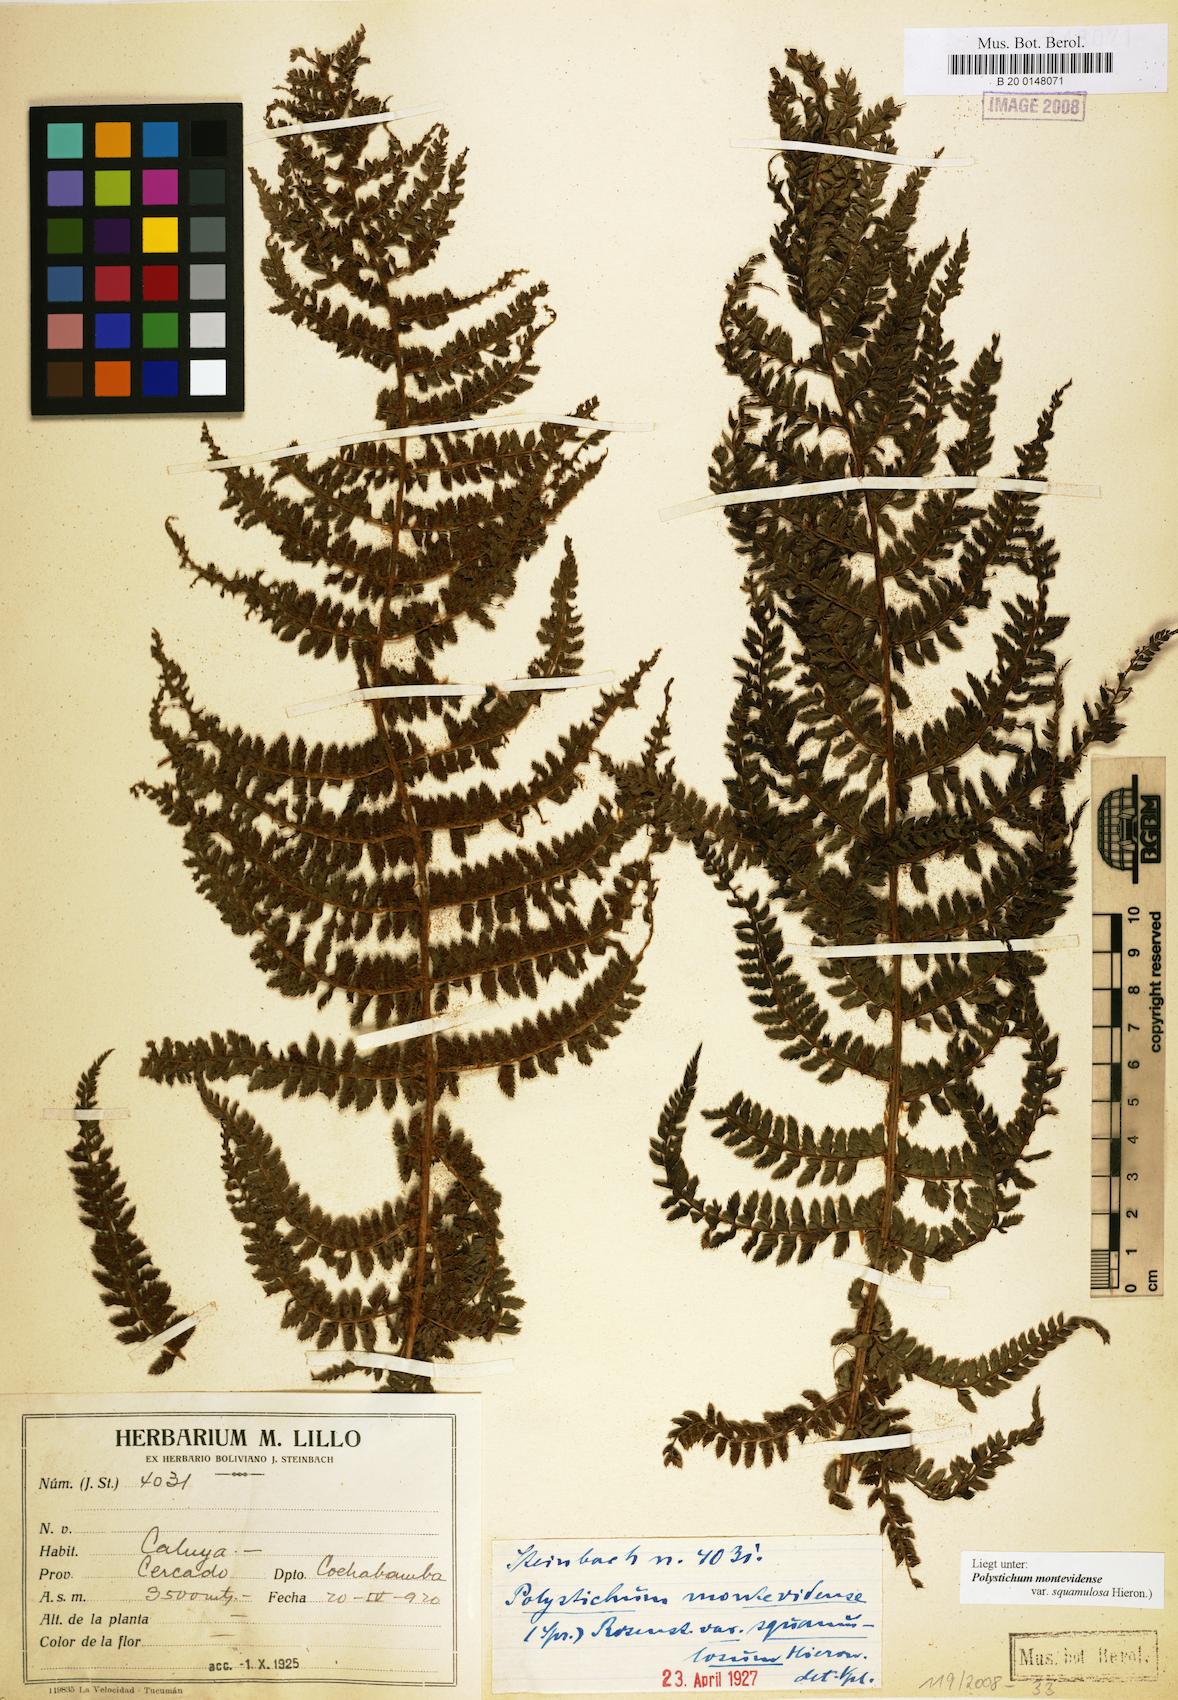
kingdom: Plantae
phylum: Tracheophyta
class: Polypodiopsida
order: Polypodiales
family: Dryopteridaceae
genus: Polystichum
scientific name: Polystichum montevidense
